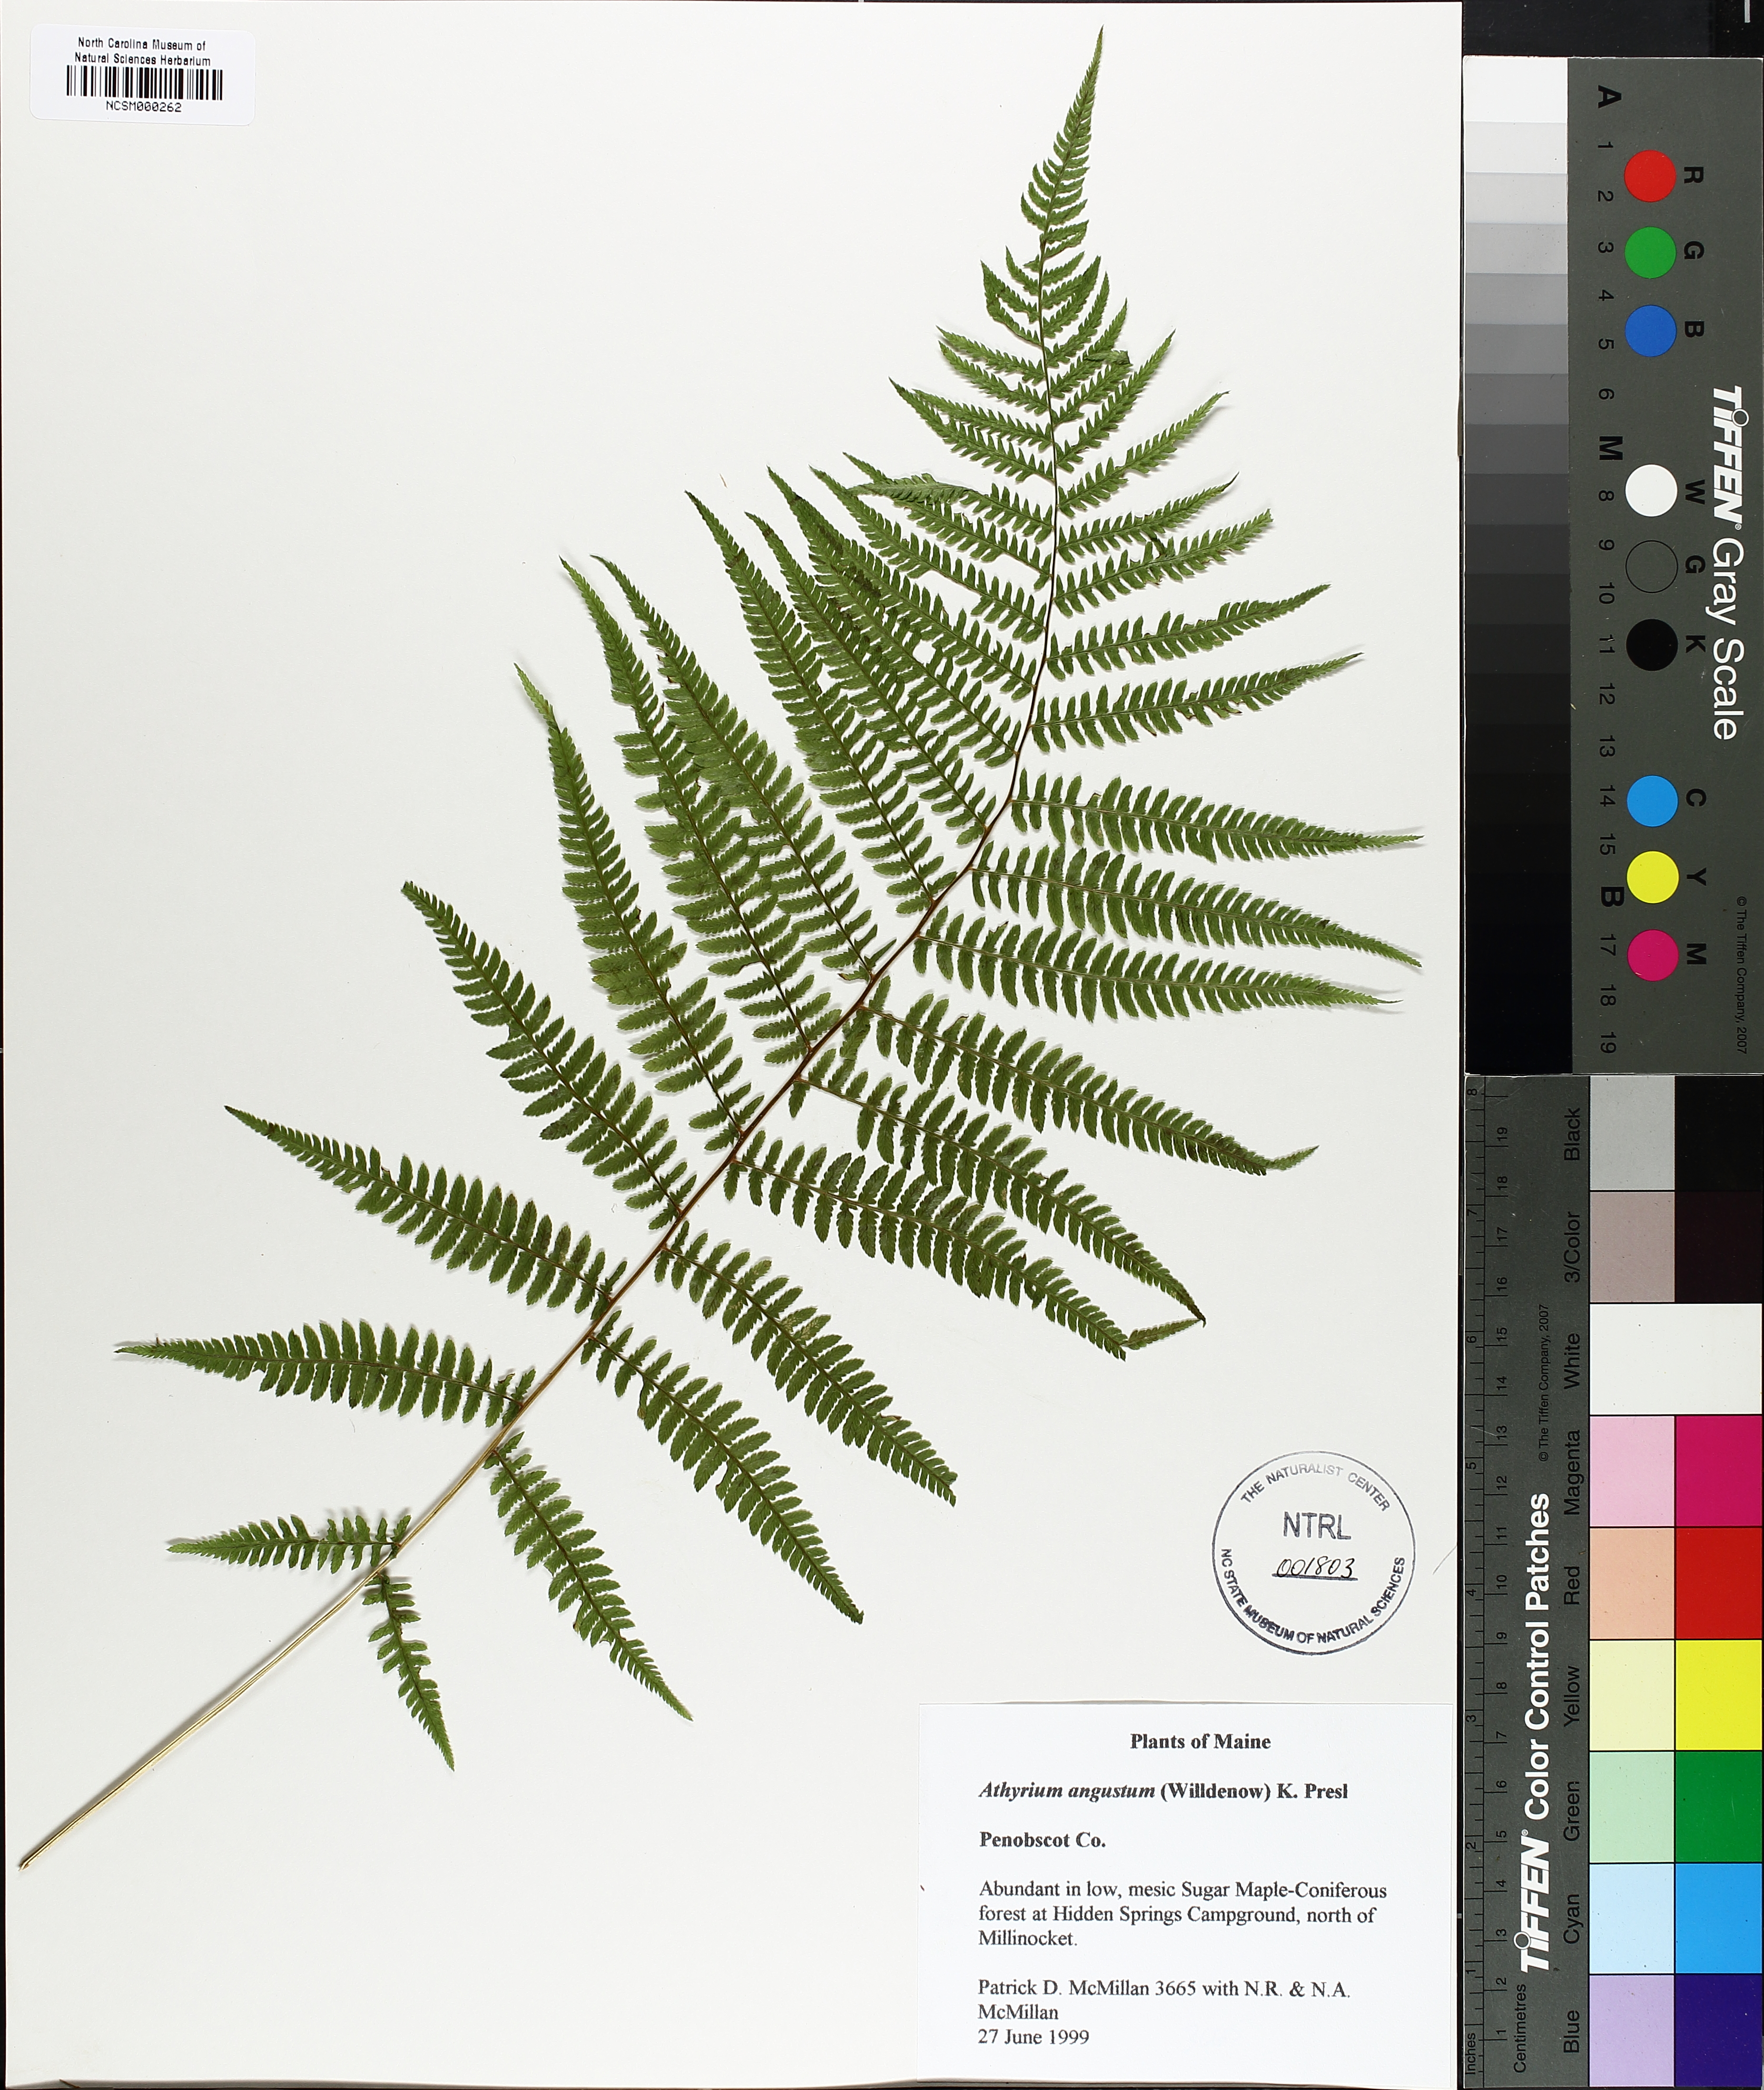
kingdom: Plantae
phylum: Tracheophyta
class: Polypodiopsida
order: Polypodiales
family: Athyriaceae
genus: Athyrium
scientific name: Athyrium angustum
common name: Northern lady fern
